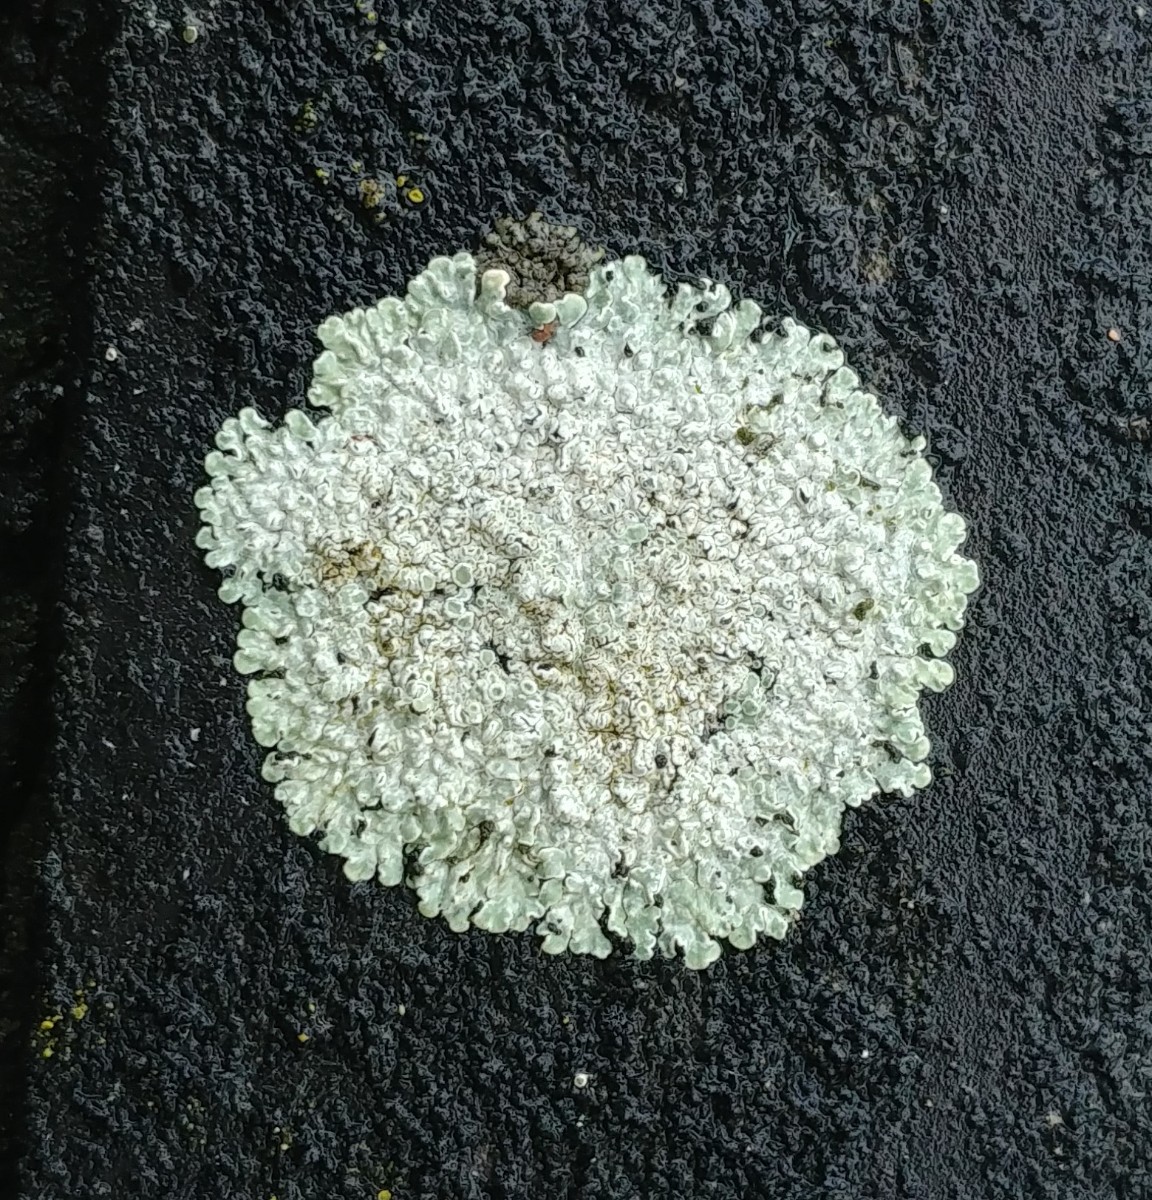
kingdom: Fungi
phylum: Ascomycota
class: Lecanoromycetes
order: Lecanorales
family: Lecanoraceae
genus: Protoparmeliopsis
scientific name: Protoparmeliopsis muralis
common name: randfliget kantskivelav
